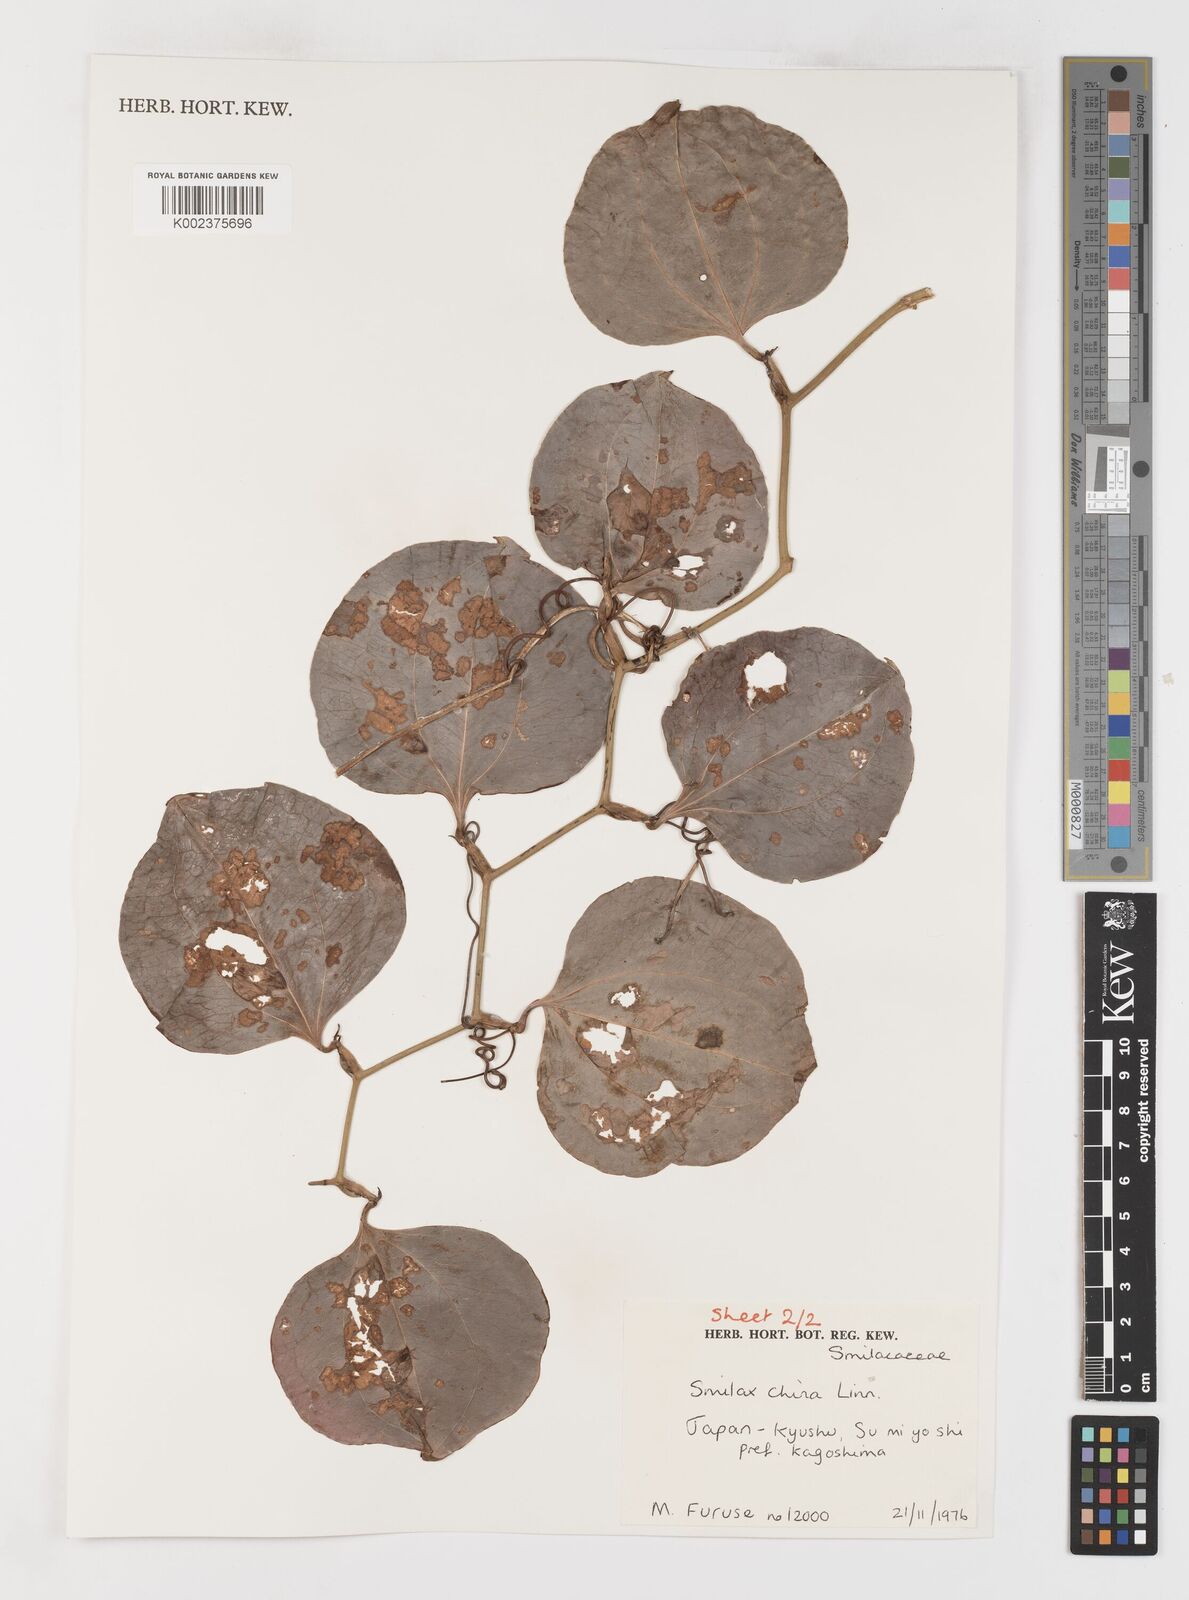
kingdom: Plantae
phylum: Tracheophyta
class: Liliopsida
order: Liliales
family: Smilacaceae
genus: Smilax
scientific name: Smilax china
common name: Chinaroot
